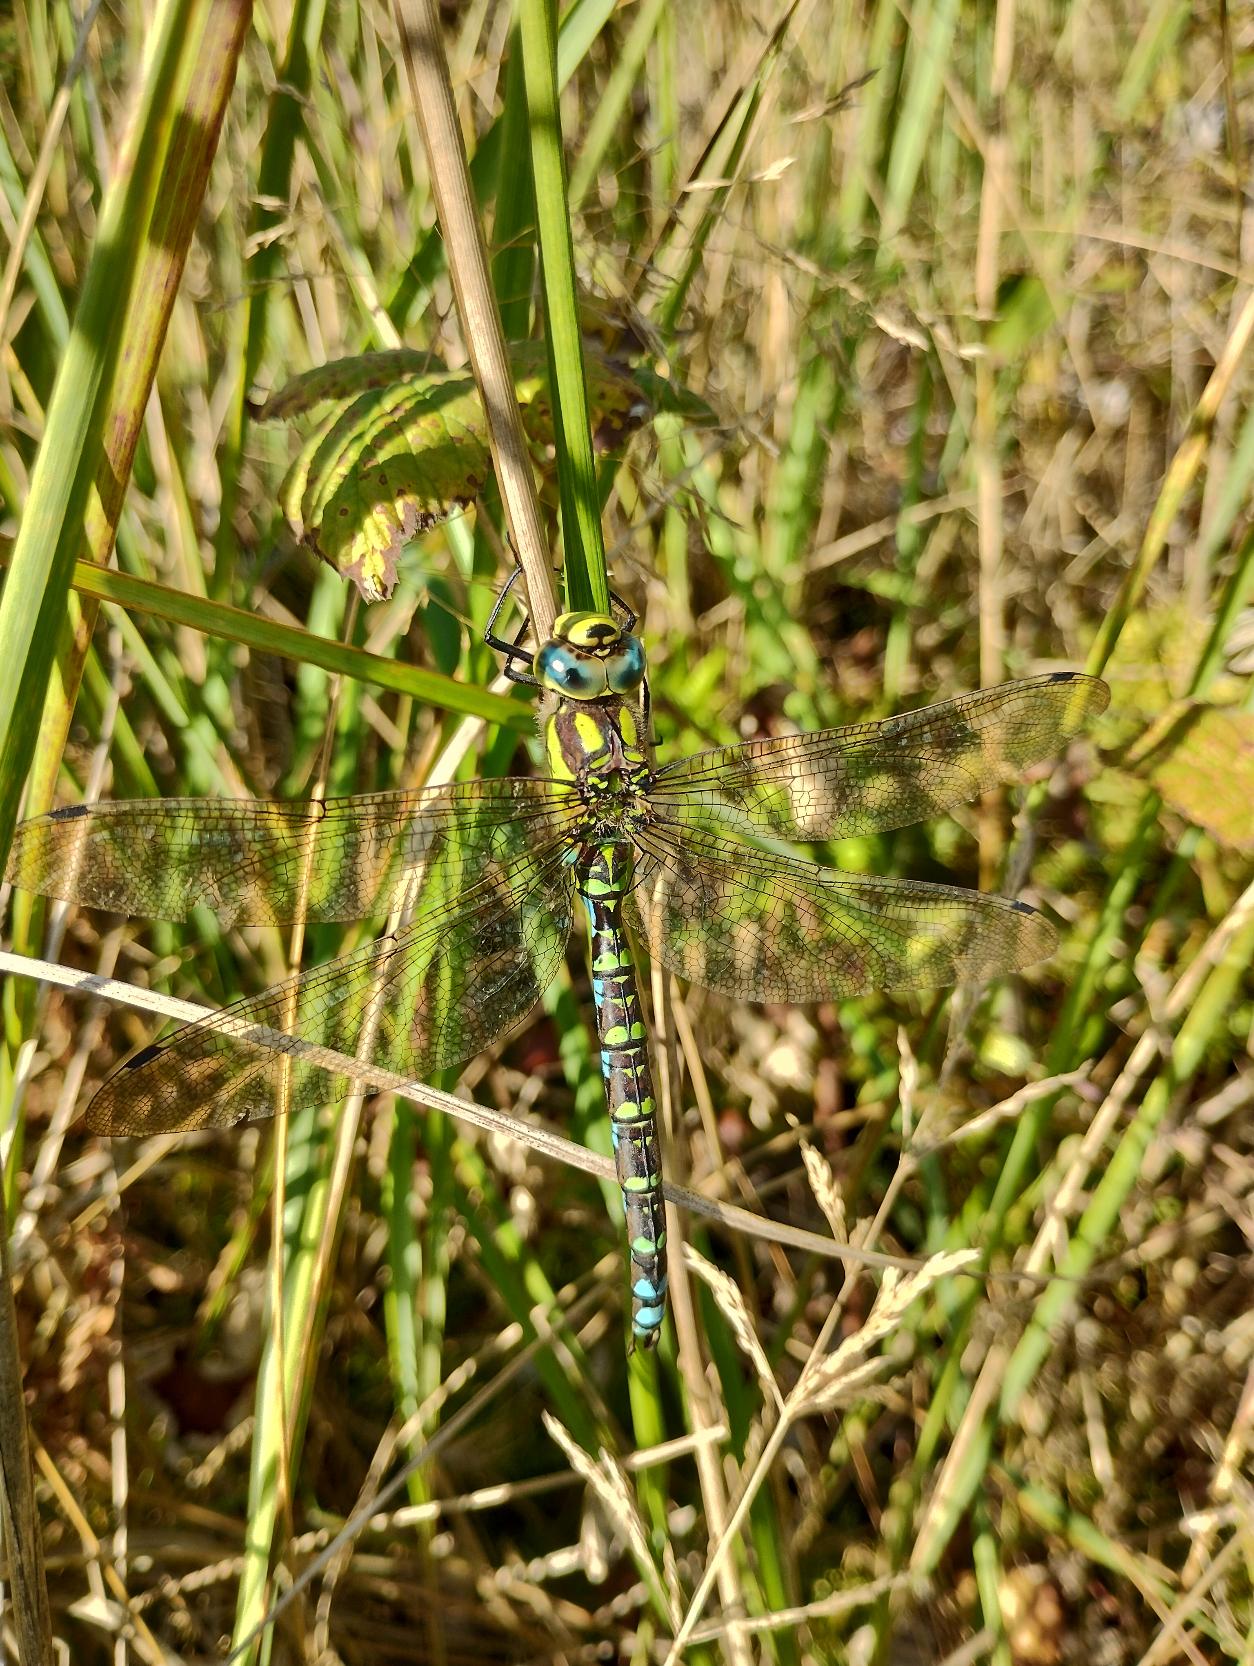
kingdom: Animalia
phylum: Arthropoda
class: Insecta
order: Odonata
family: Aeshnidae
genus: Aeshna
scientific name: Aeshna cyanea
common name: Blå mosaikguldsmed
